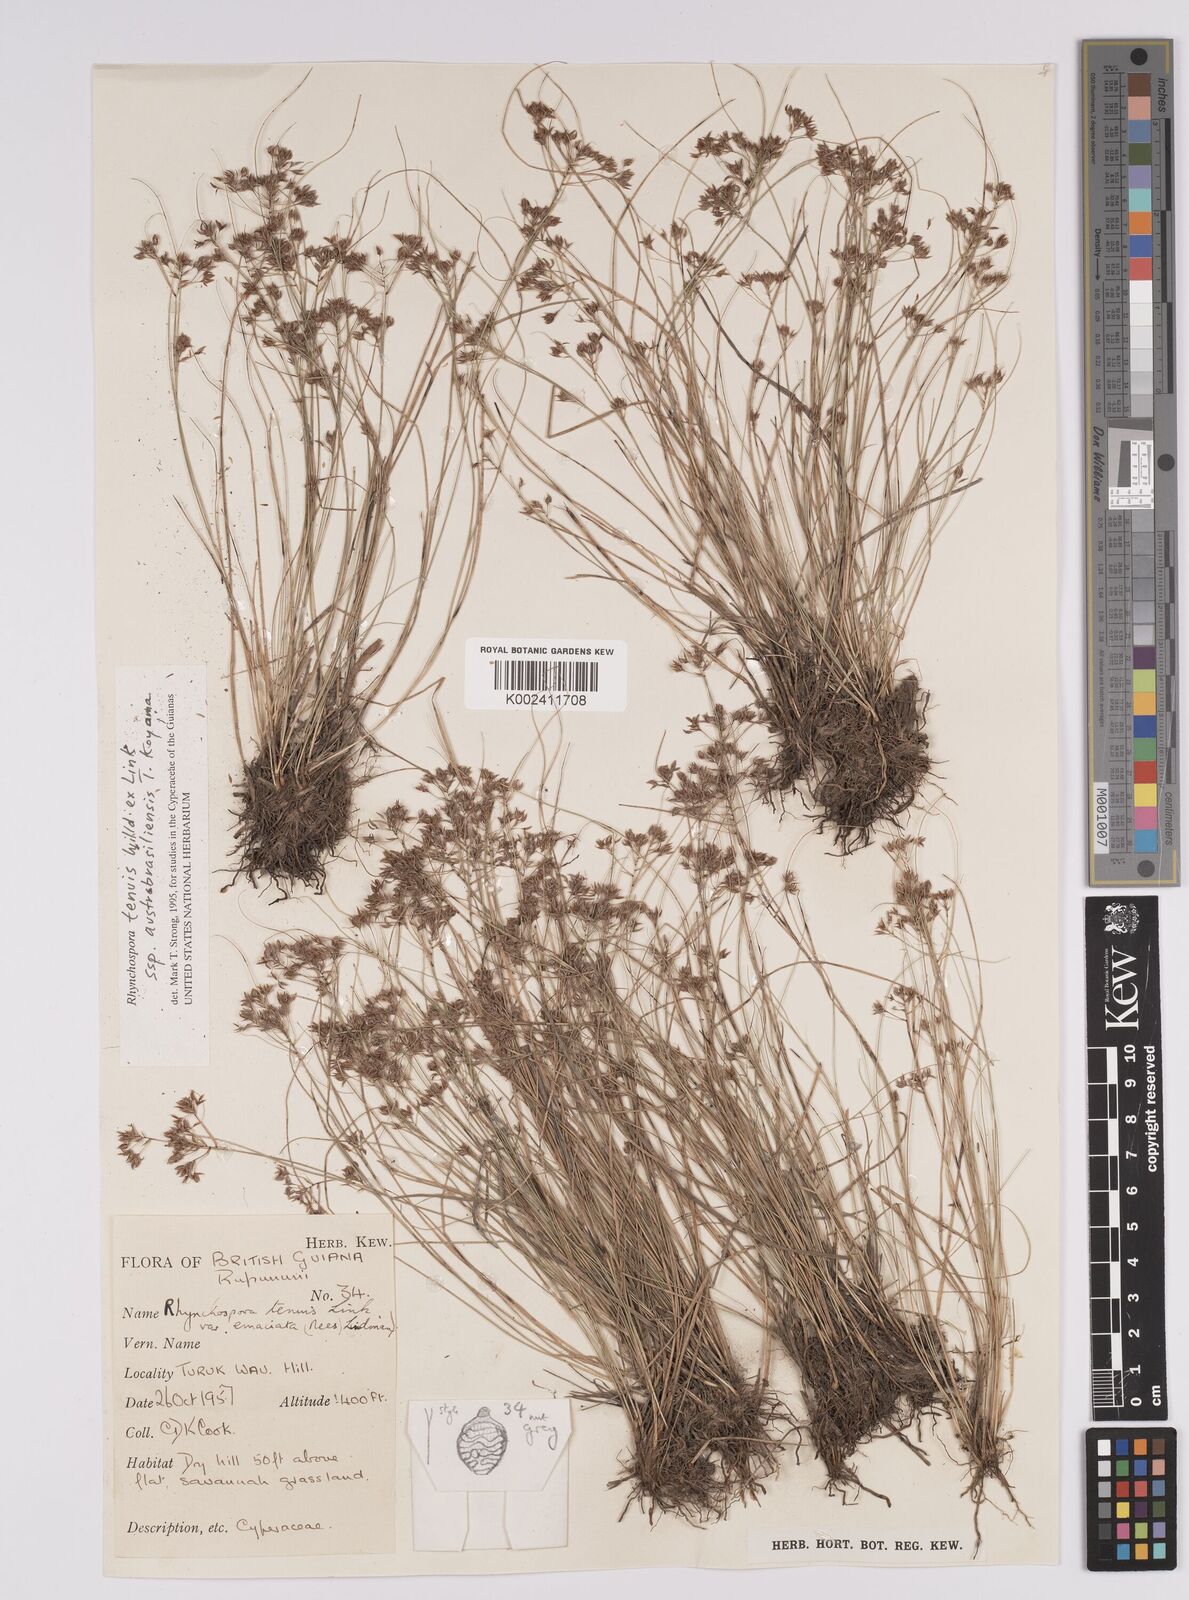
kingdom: Plantae
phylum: Tracheophyta
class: Liliopsida
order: Poales
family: Cyperaceae
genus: Rhynchospora
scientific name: Rhynchospora tenuis
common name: Quill beaksedge
